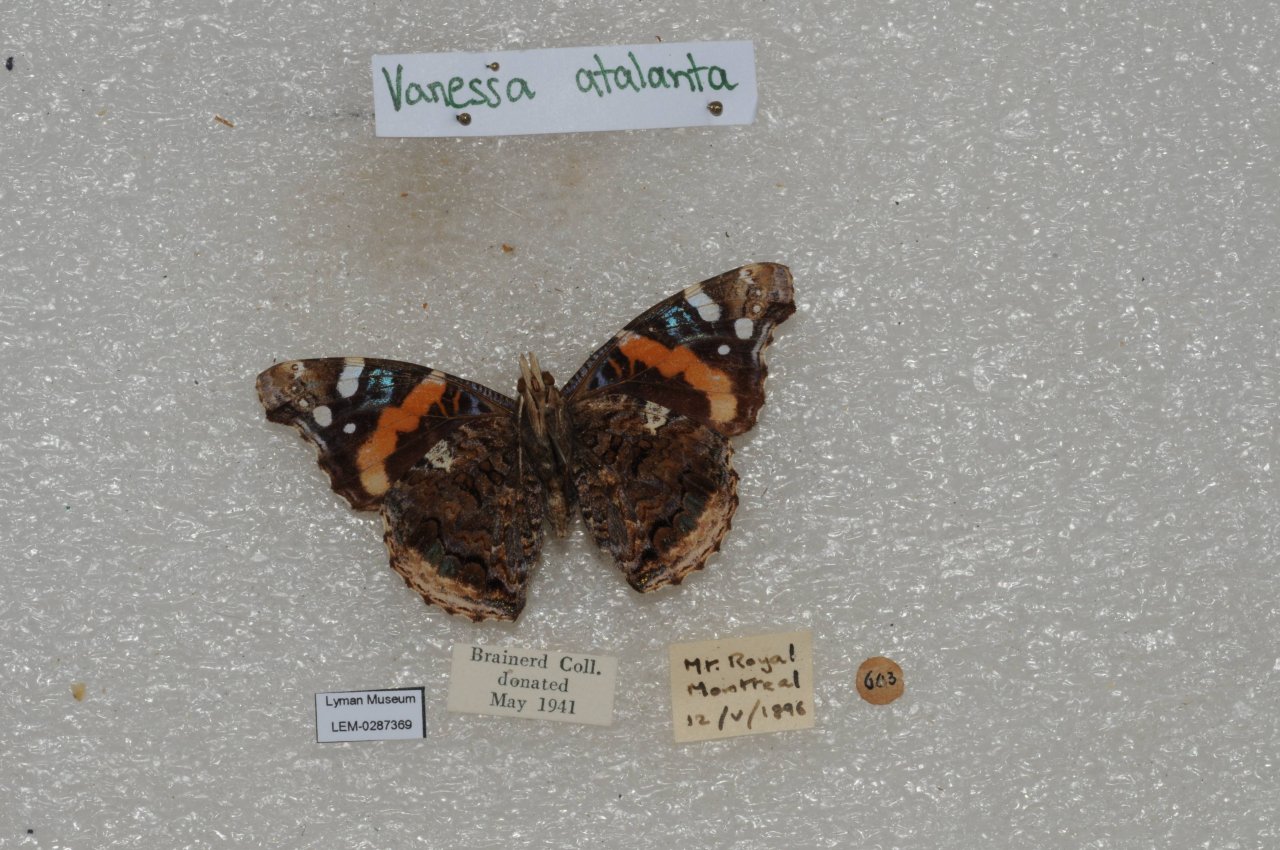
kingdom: Animalia
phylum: Arthropoda
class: Insecta
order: Lepidoptera
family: Nymphalidae
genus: Vanessa
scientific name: Vanessa atalanta
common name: Red Admiral
